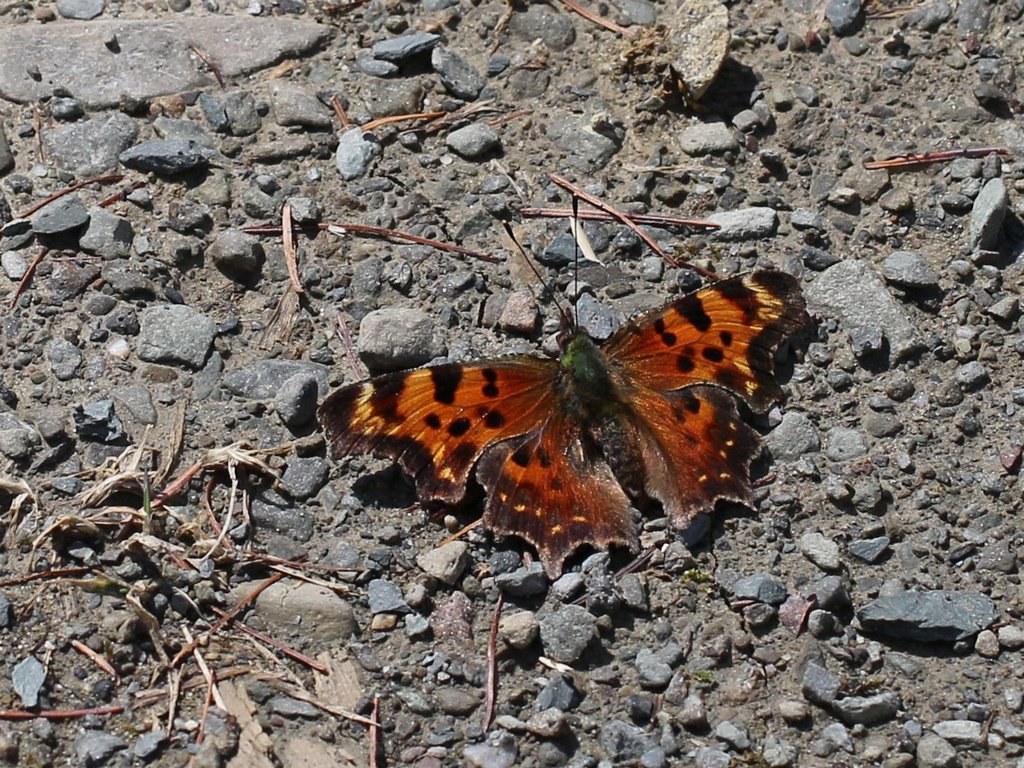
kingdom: Animalia
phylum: Arthropoda
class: Insecta
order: Lepidoptera
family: Nymphalidae
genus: Polygonia
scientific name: Polygonia faunus
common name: Green Comma
